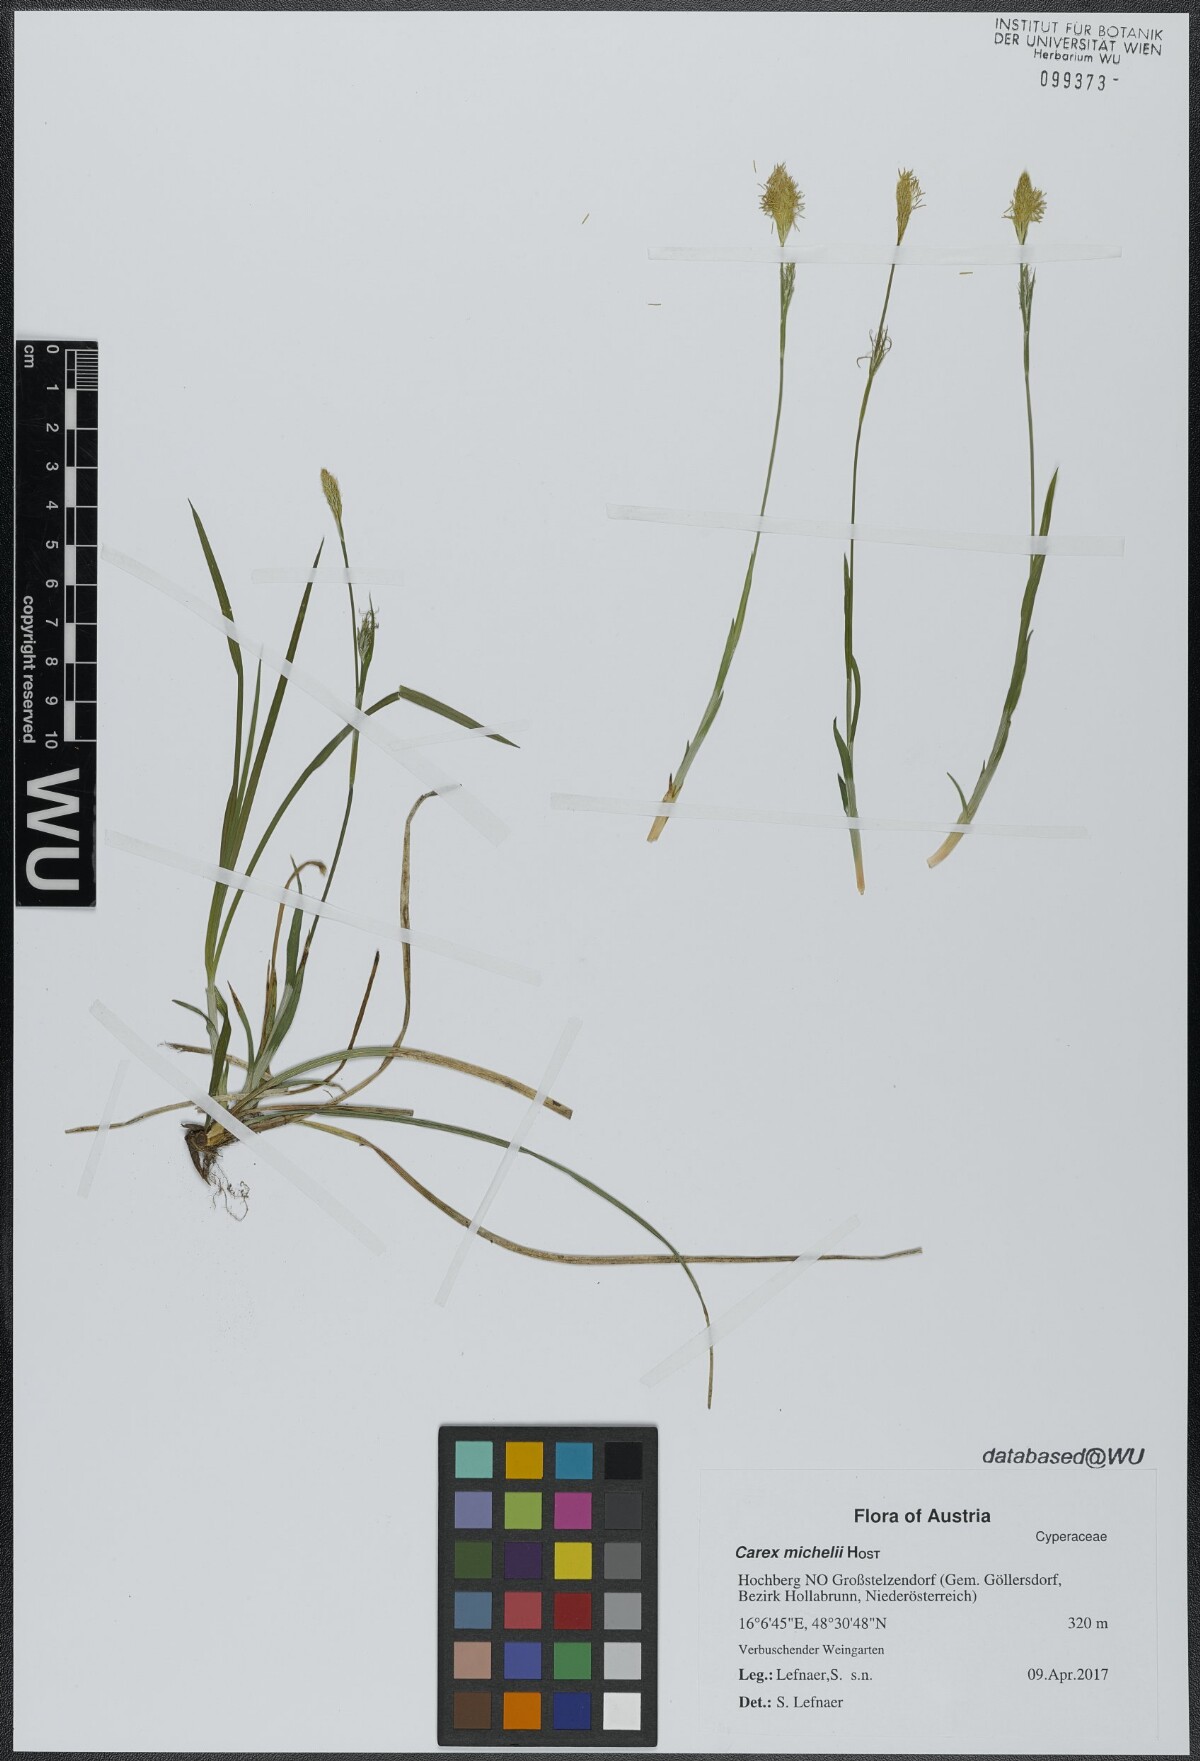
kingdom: Plantae
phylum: Tracheophyta
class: Liliopsida
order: Poales
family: Cyperaceae
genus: Carex
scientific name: Carex michelii
